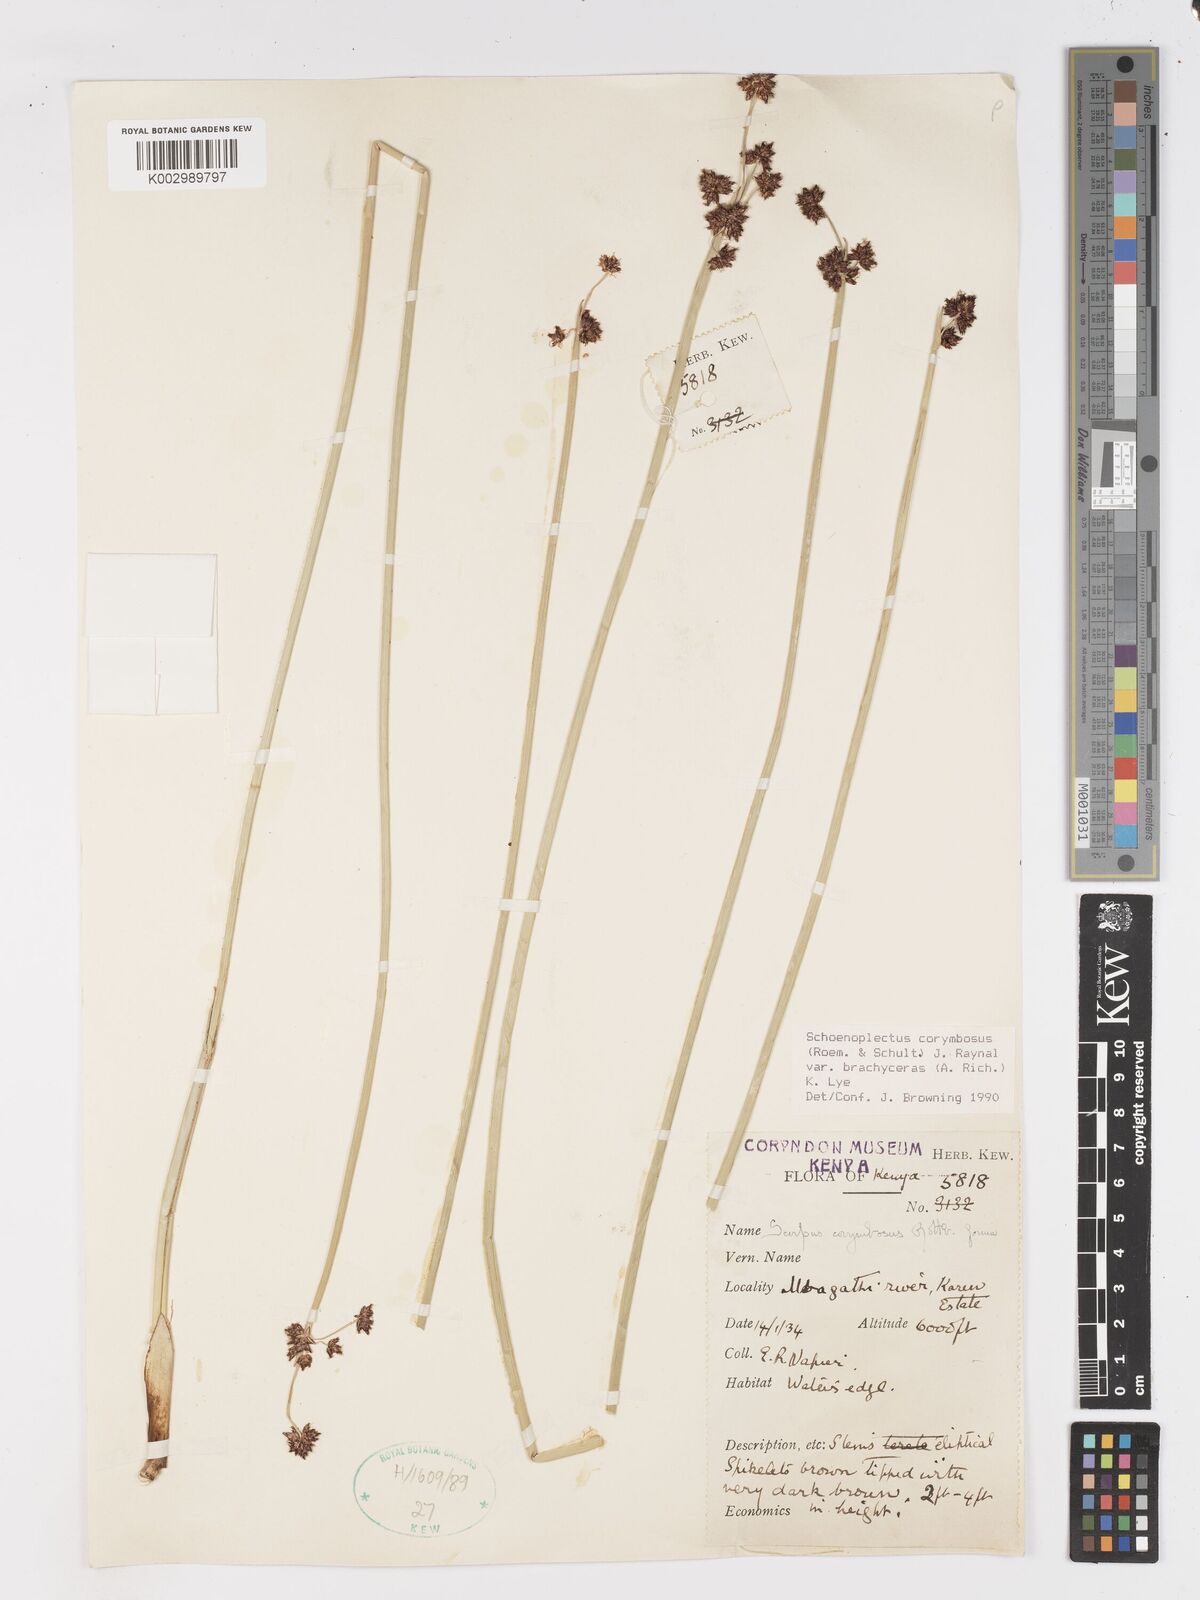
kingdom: Plantae
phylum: Tracheophyta
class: Liliopsida
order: Poales
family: Cyperaceae
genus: Schoenoplectiella
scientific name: Schoenoplectiella brachyceras
